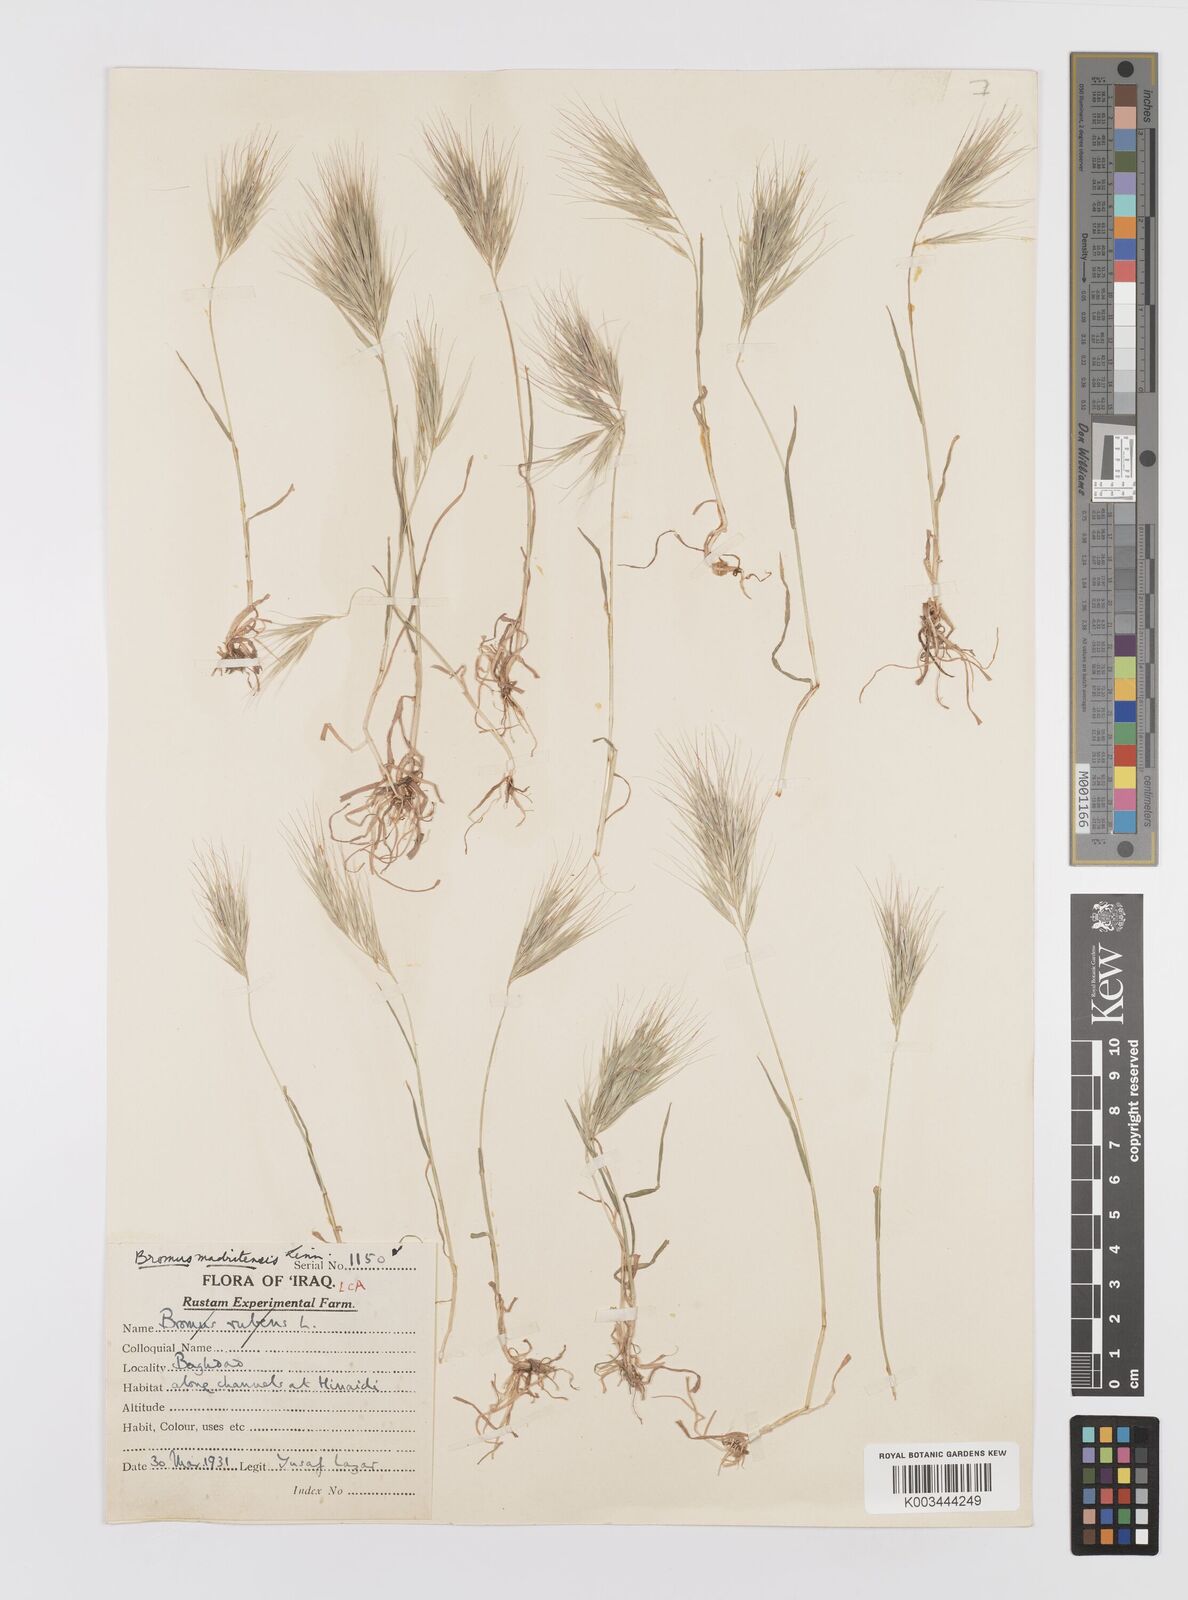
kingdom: Plantae
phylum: Tracheophyta
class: Liliopsida
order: Poales
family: Poaceae
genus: Bromus
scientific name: Bromus madritensis
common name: Compact brome
